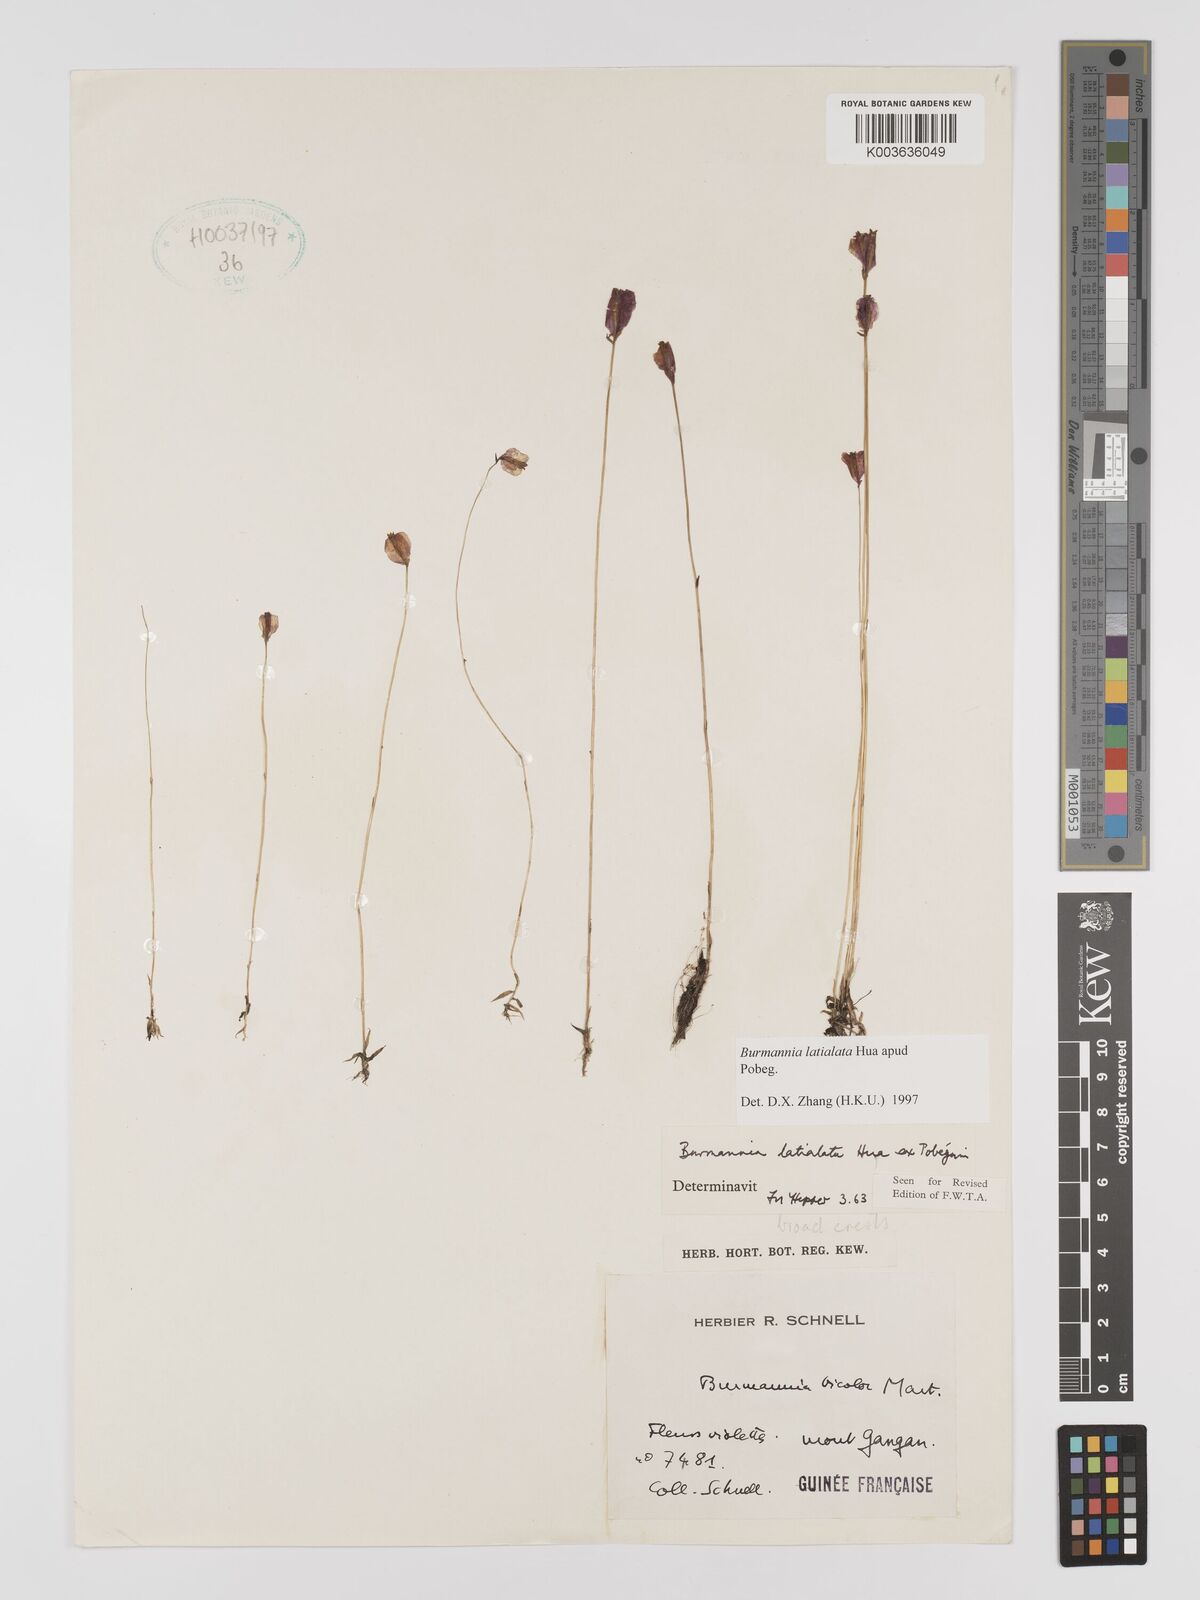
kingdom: Plantae
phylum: Tracheophyta
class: Liliopsida
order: Dioscoreales
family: Burmanniaceae
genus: Burmannia
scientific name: Burmannia madagascariensis
